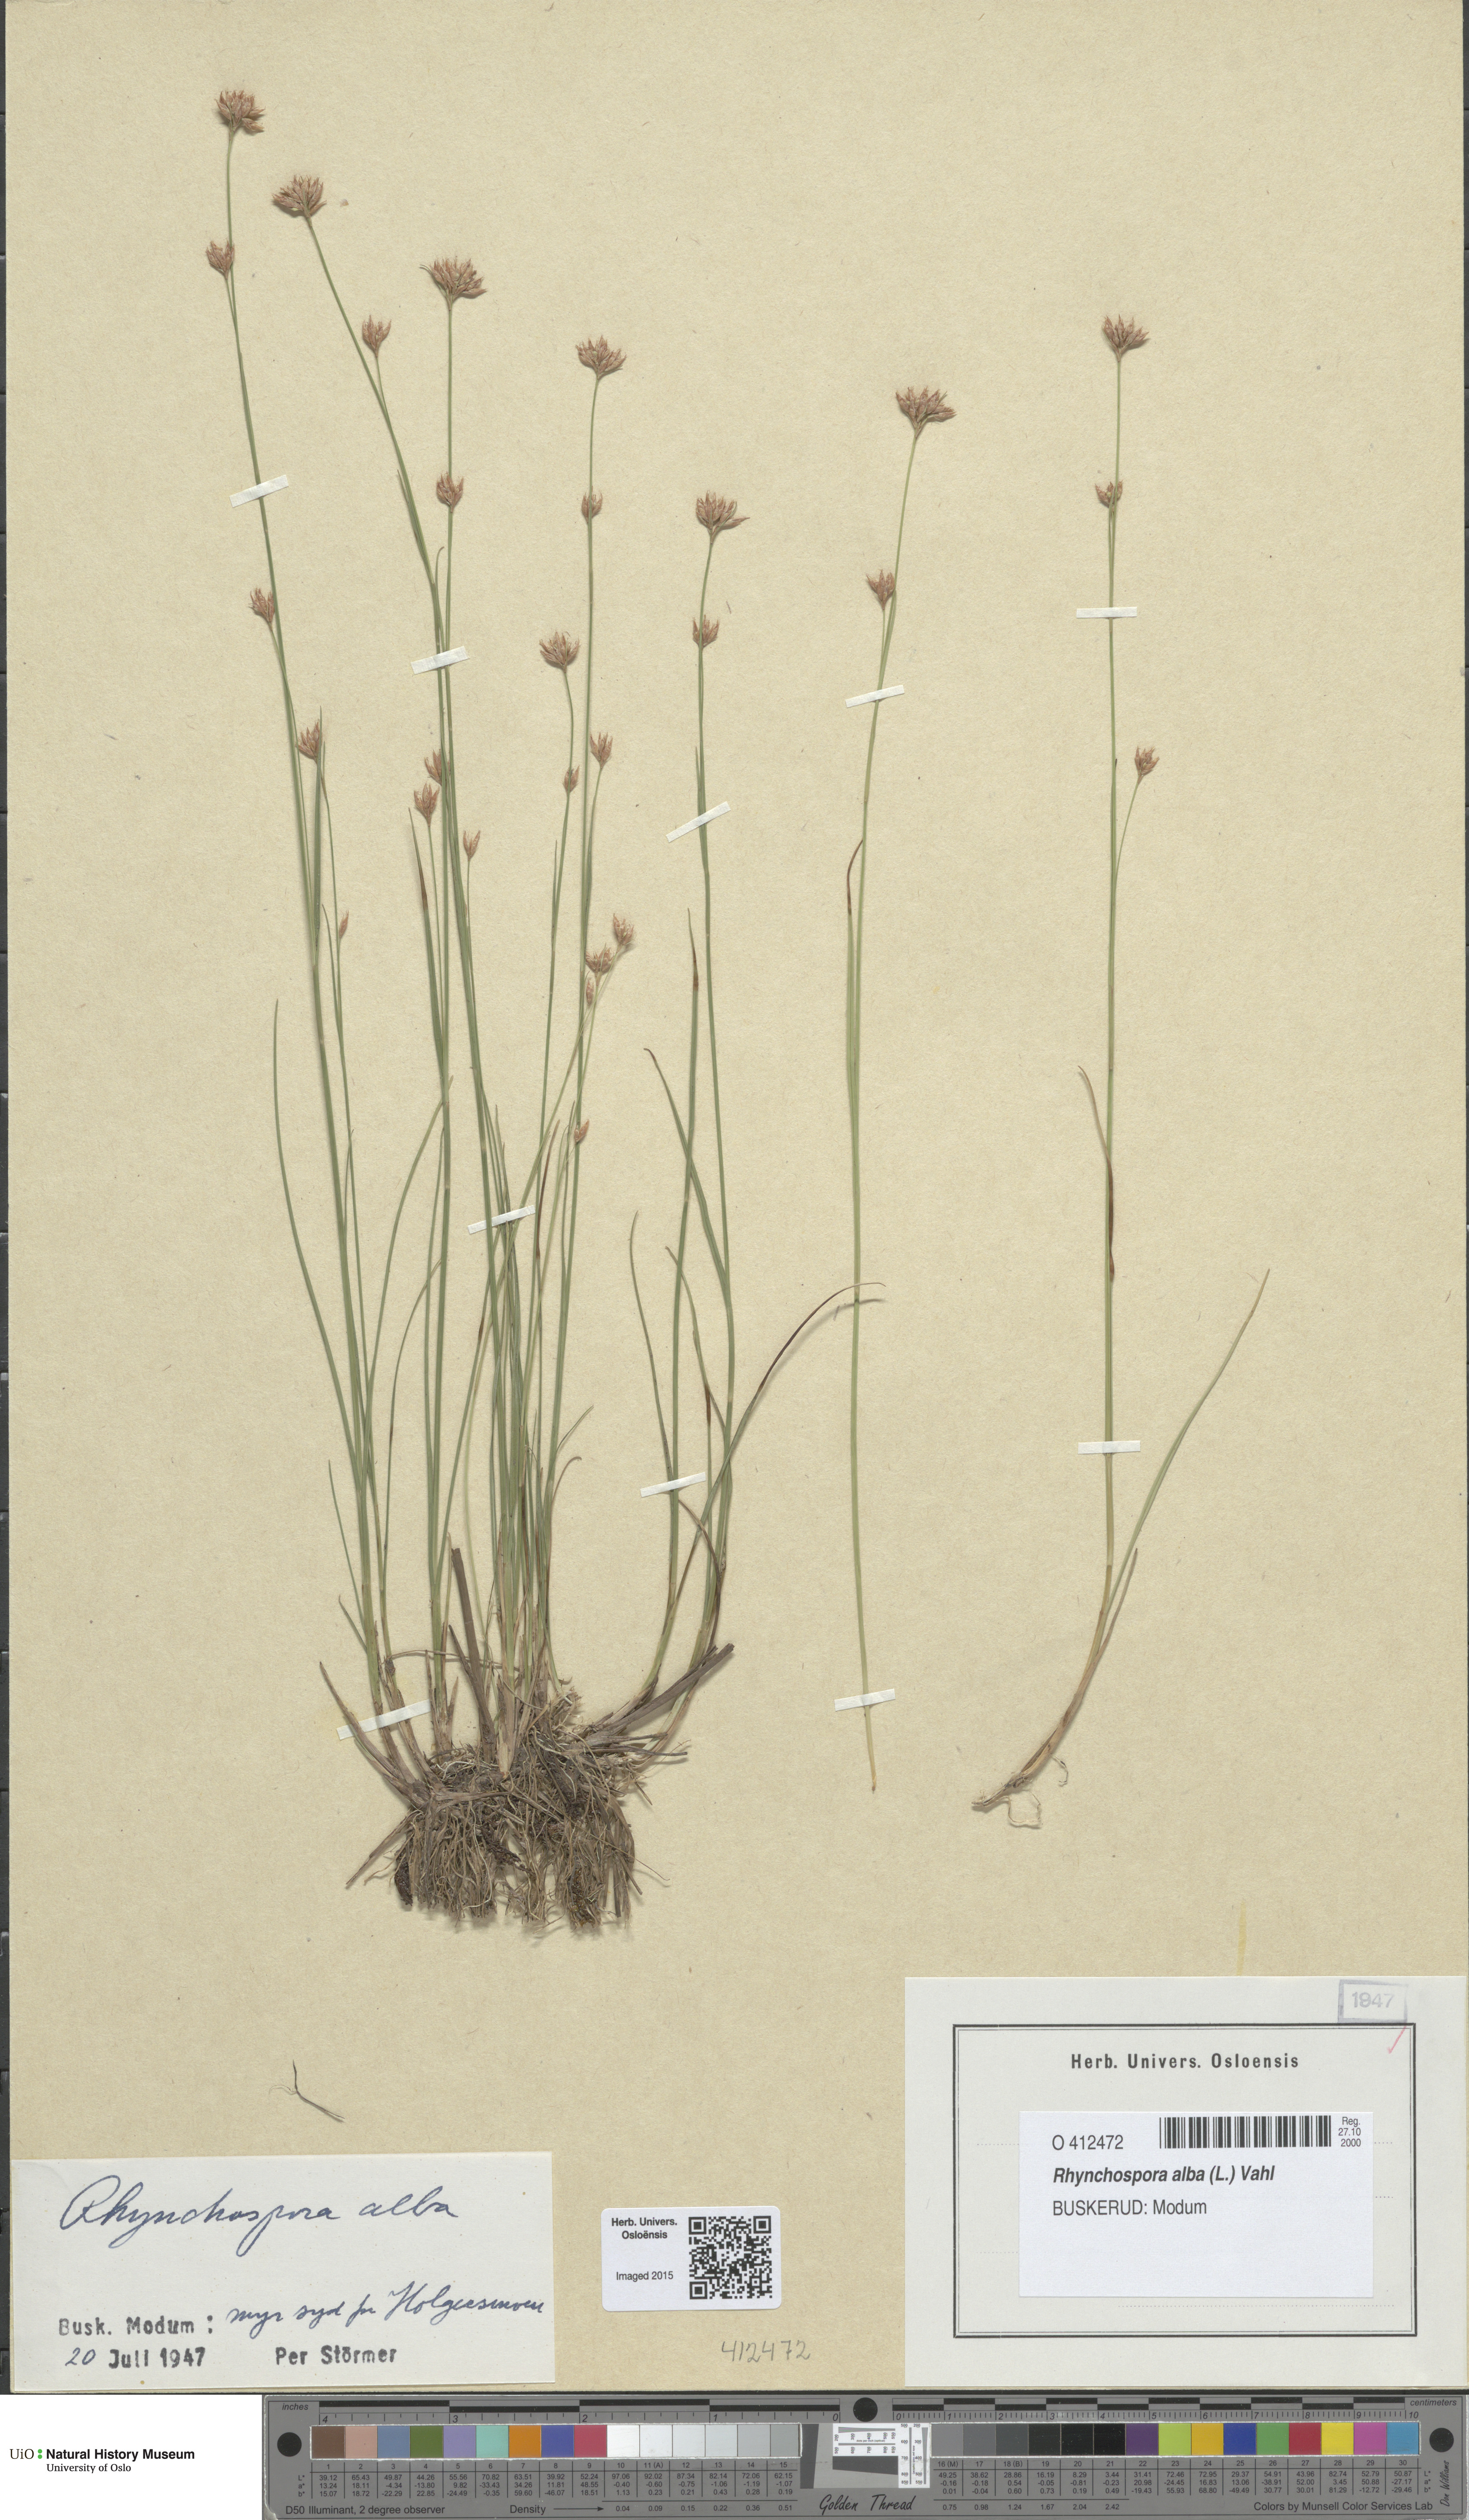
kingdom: Plantae
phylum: Tracheophyta
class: Liliopsida
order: Poales
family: Cyperaceae
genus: Rhynchospora
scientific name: Rhynchospora alba
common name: White beak-sedge
